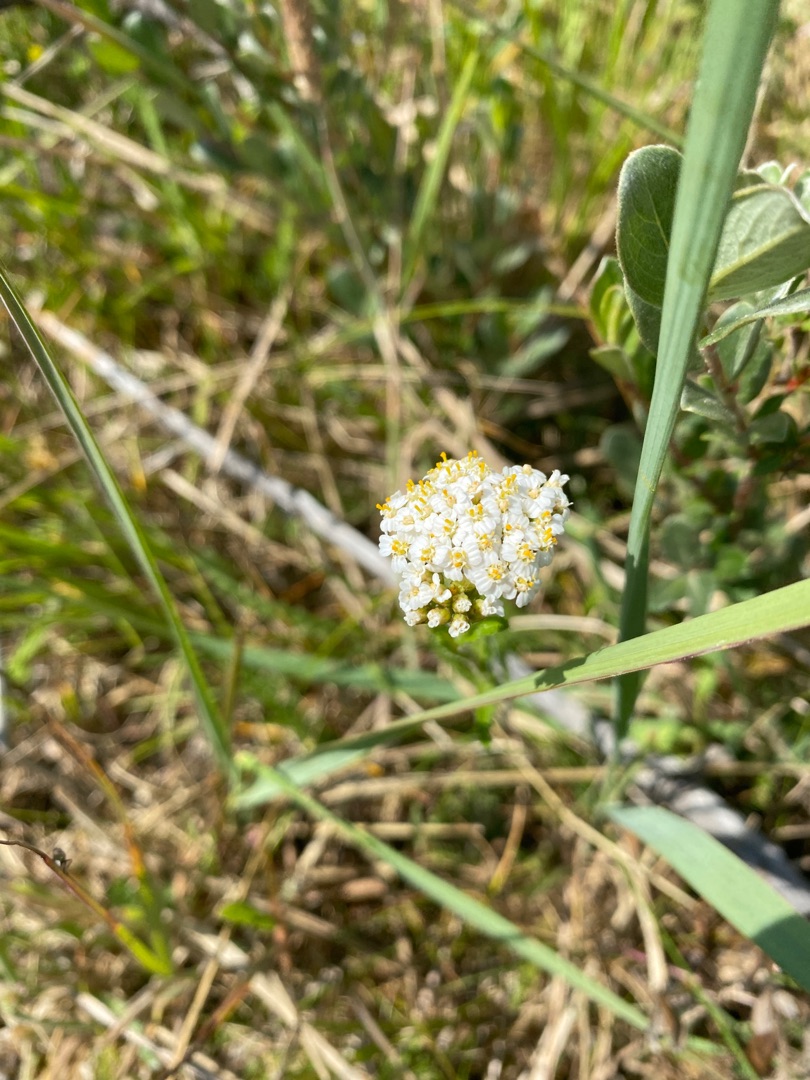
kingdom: Plantae
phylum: Tracheophyta
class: Magnoliopsida
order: Asterales
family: Asteraceae
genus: Achillea
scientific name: Achillea millefolium
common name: Almindelig røllike
